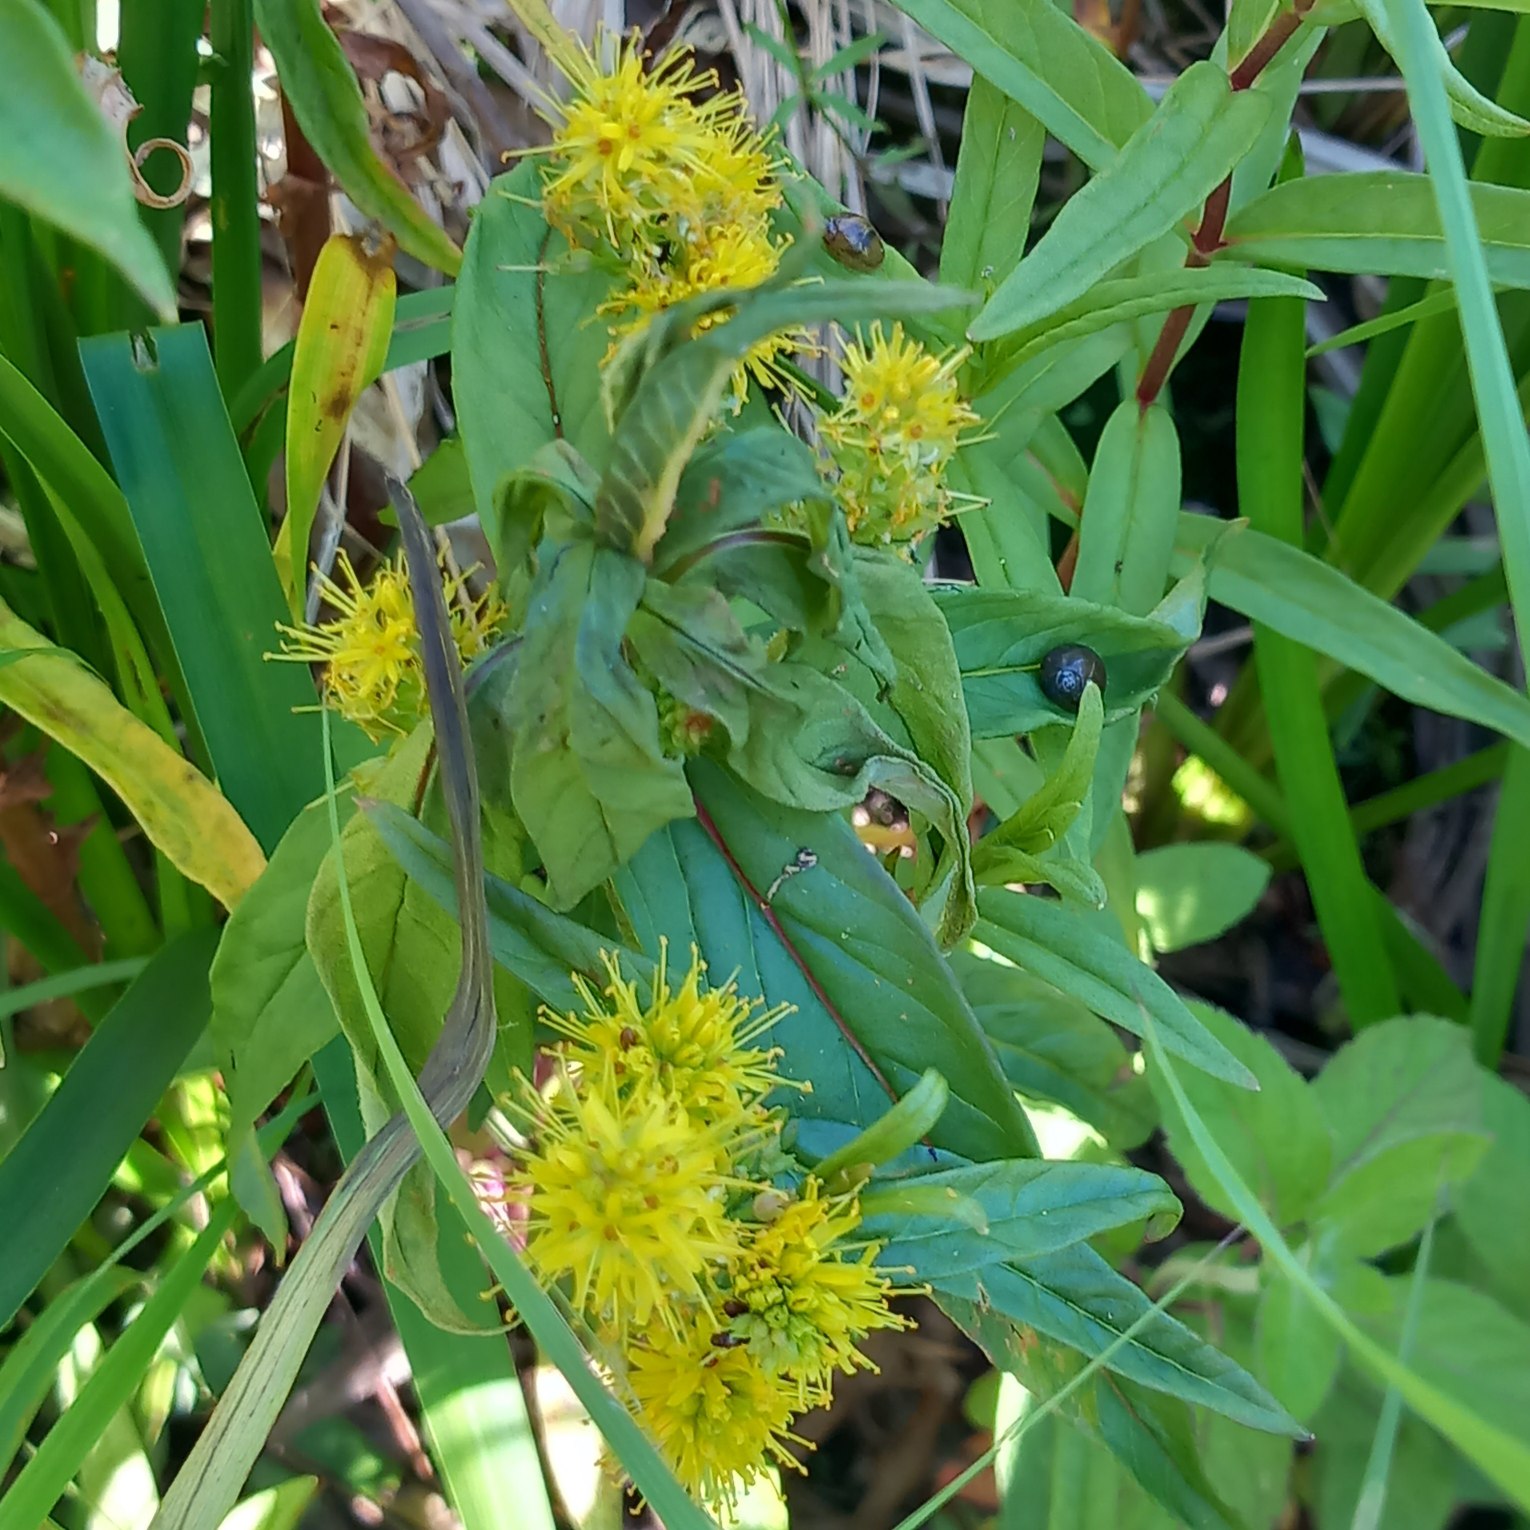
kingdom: Plantae
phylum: Tracheophyta
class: Magnoliopsida
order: Ericales
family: Primulaceae
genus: Lysimachia
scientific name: Lysimachia thyrsiflora
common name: Dusk-fredløs
